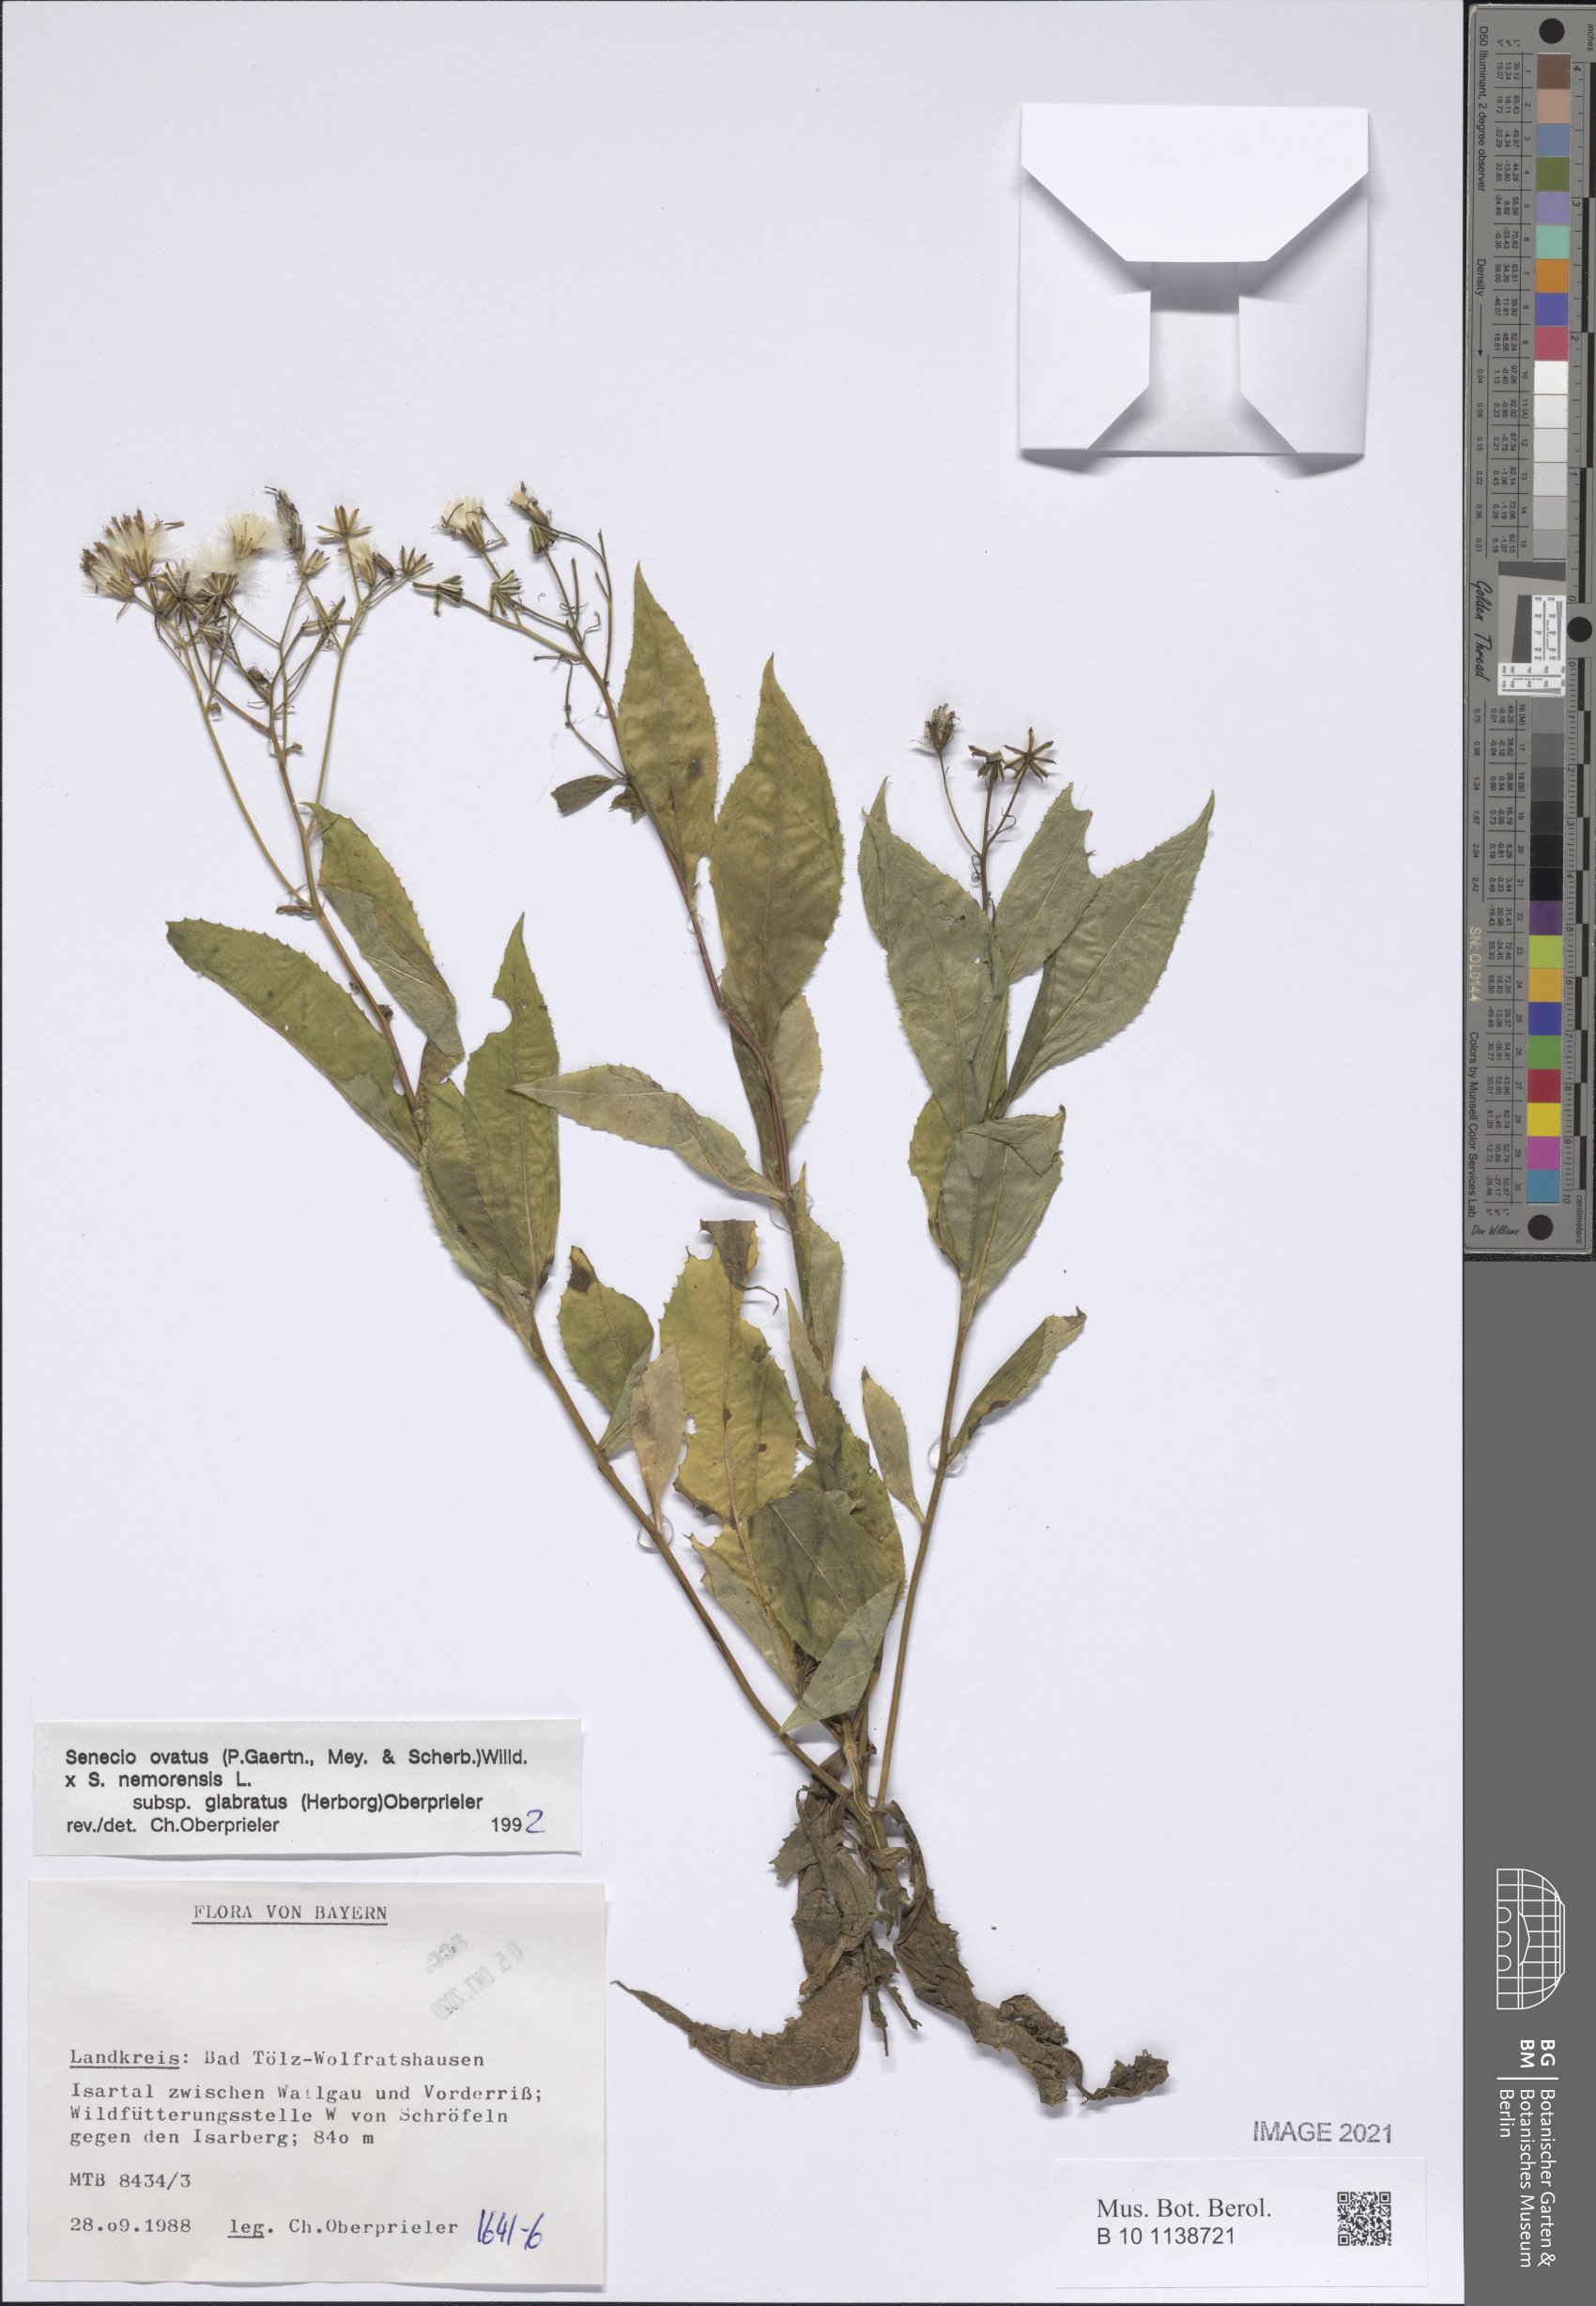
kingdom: Plantae
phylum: Tracheophyta
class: Magnoliopsida
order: Asterales
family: Asteraceae
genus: Senecio
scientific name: Senecio ovatus
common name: Wood ragwort
